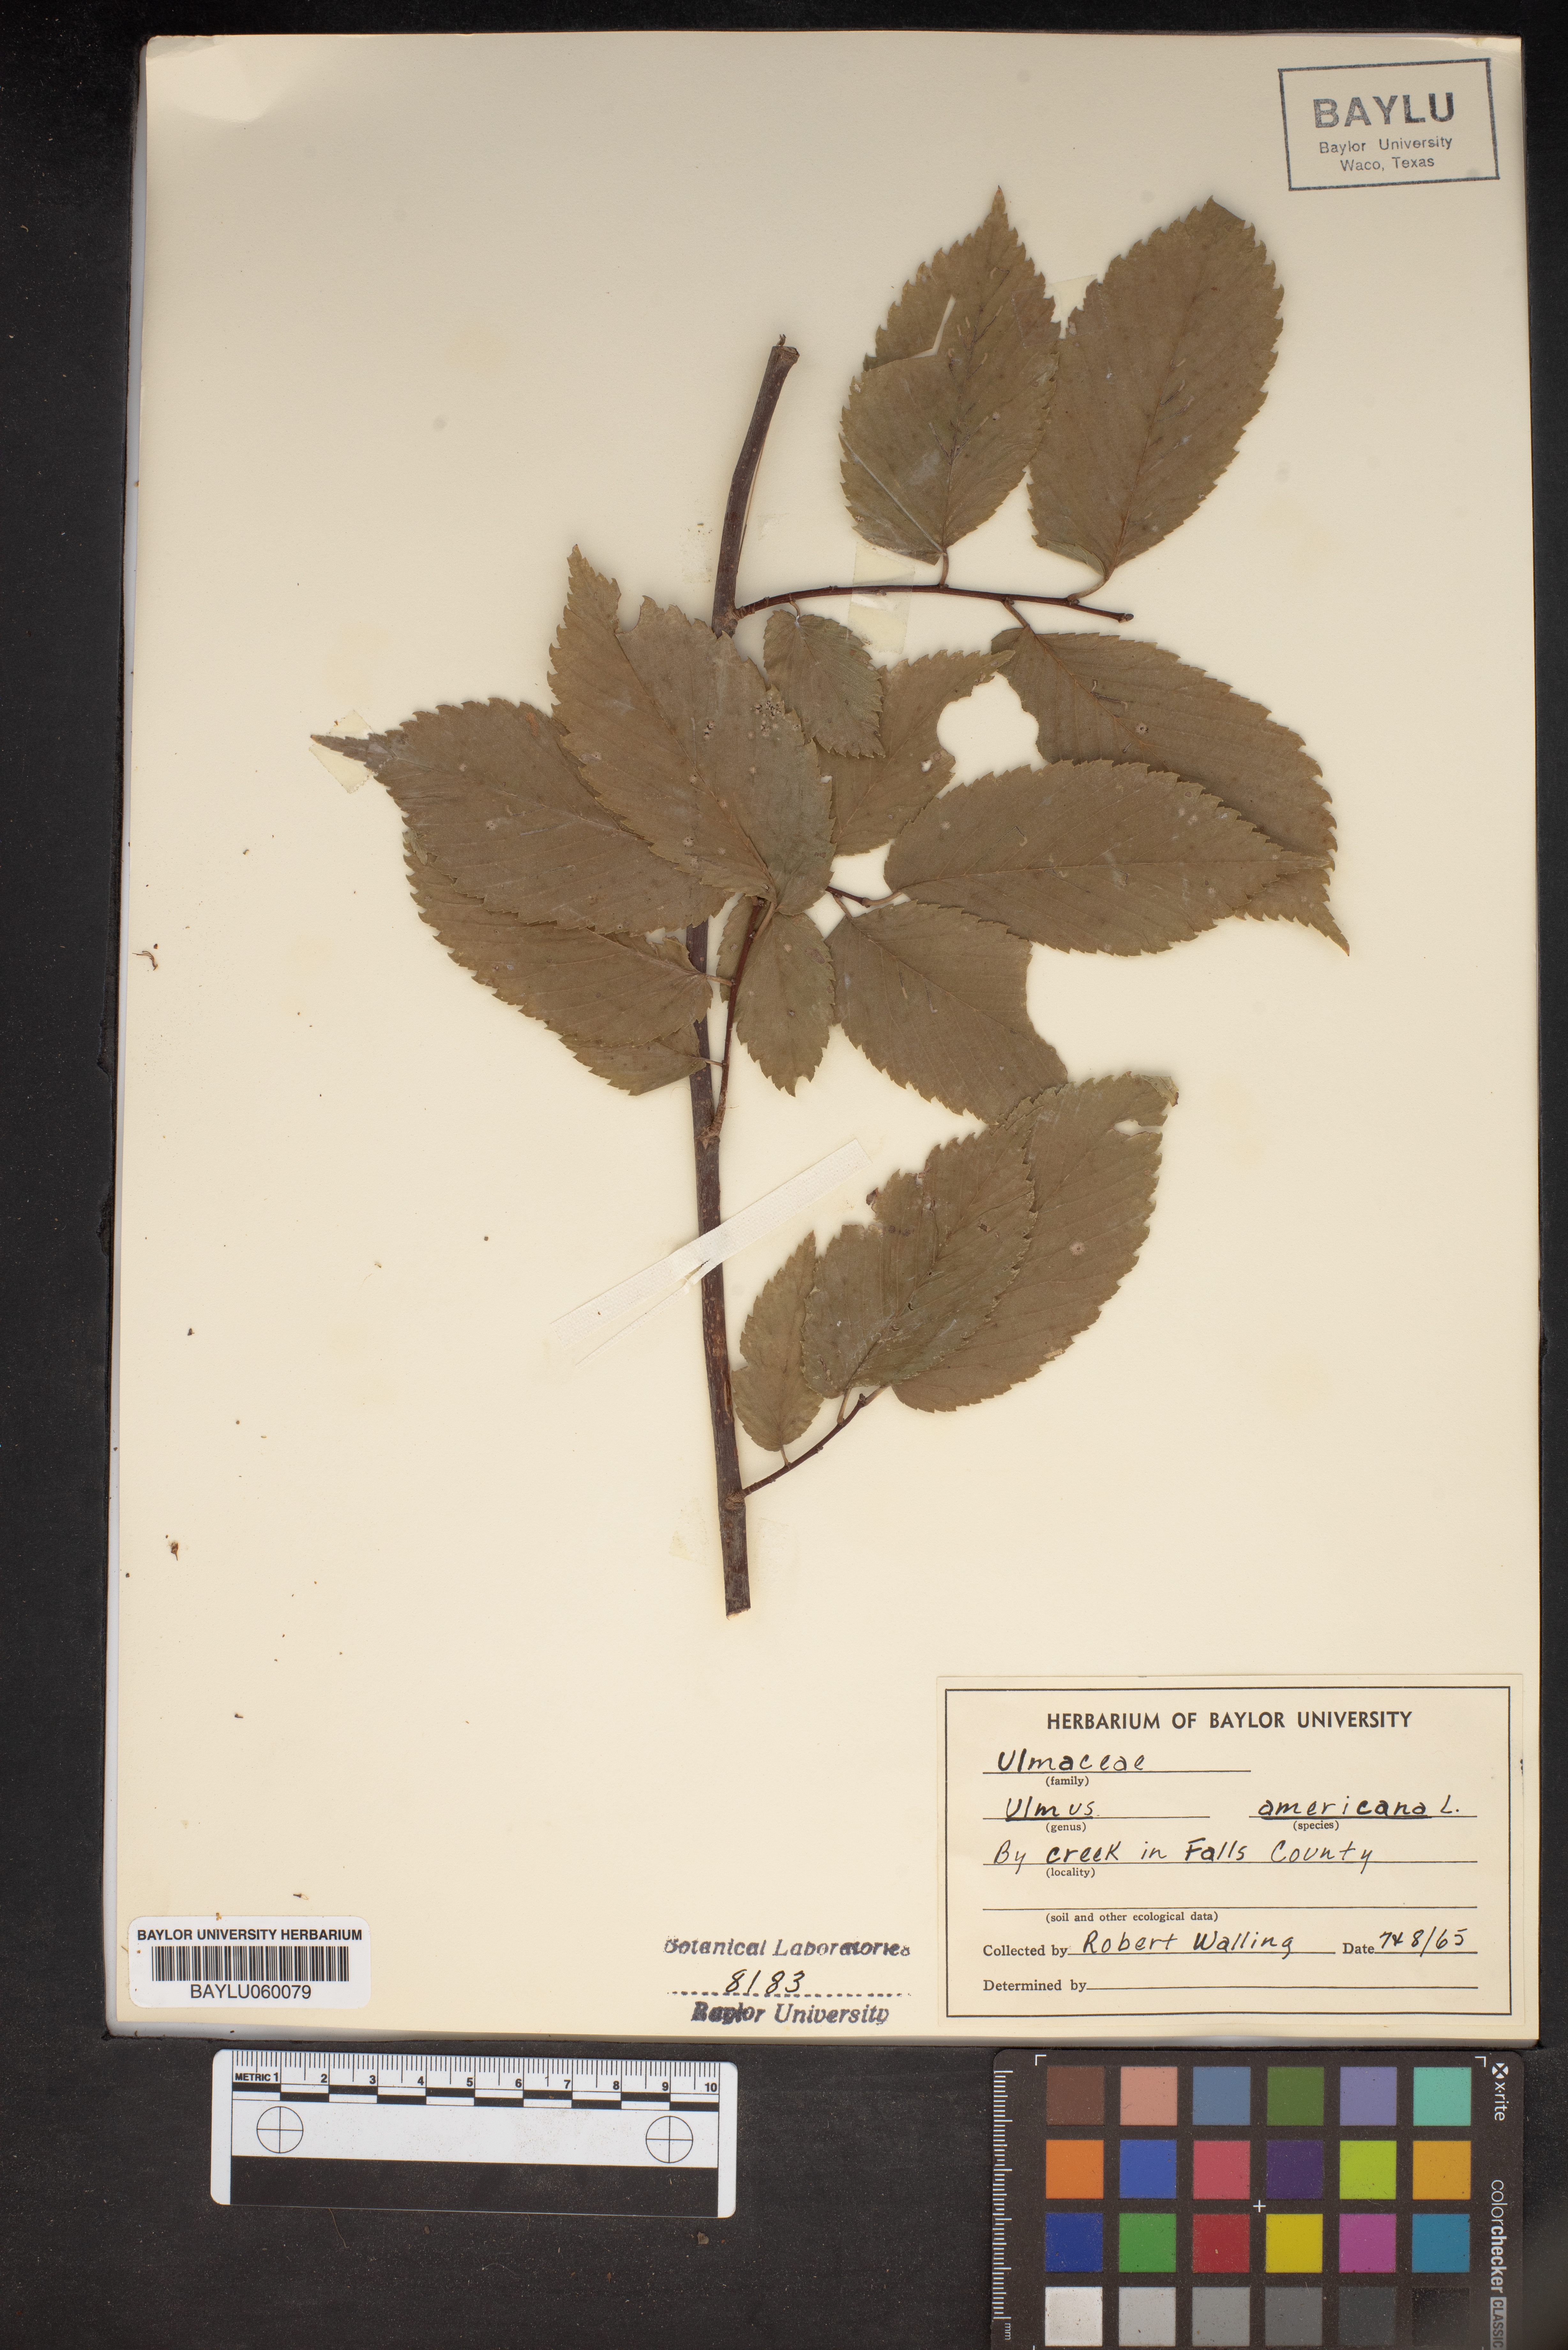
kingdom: Plantae
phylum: Tracheophyta
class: Magnoliopsida
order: Rosales
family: Ulmaceae
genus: Ulmus
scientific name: Ulmus americana
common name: American elm
